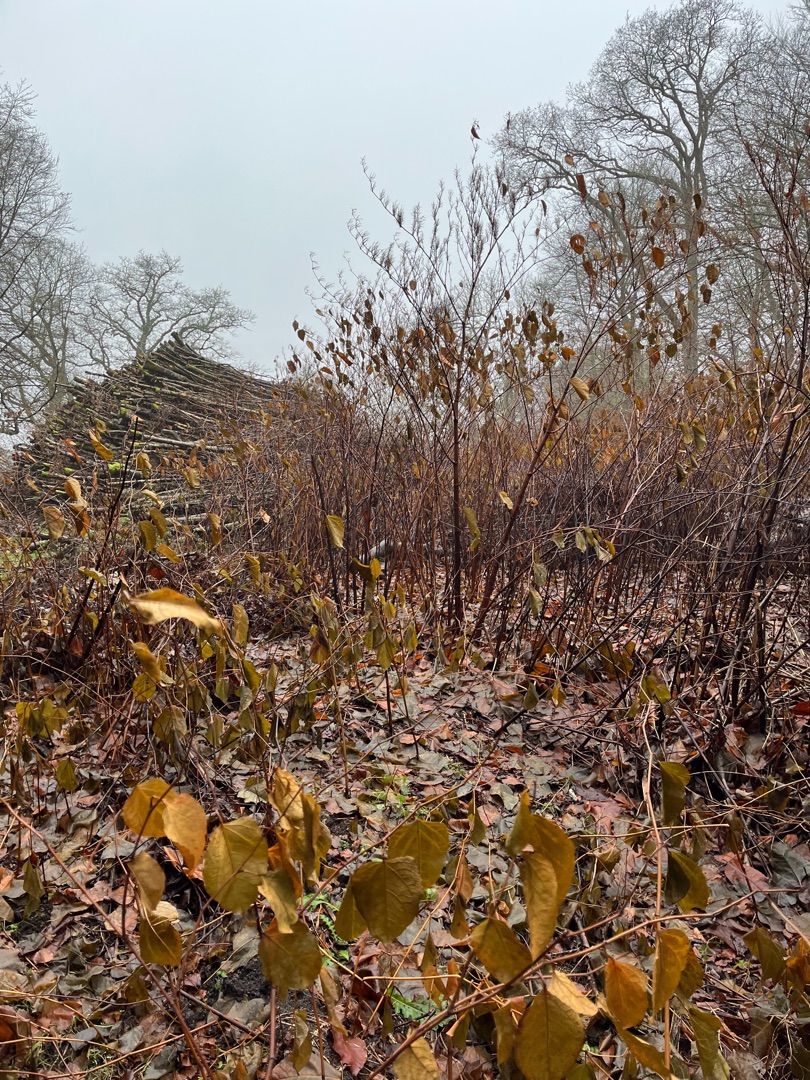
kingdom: Plantae
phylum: Tracheophyta
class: Magnoliopsida
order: Caryophyllales
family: Polygonaceae
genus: Reynoutria
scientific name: Reynoutria japonica
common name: Japan-pileurt
